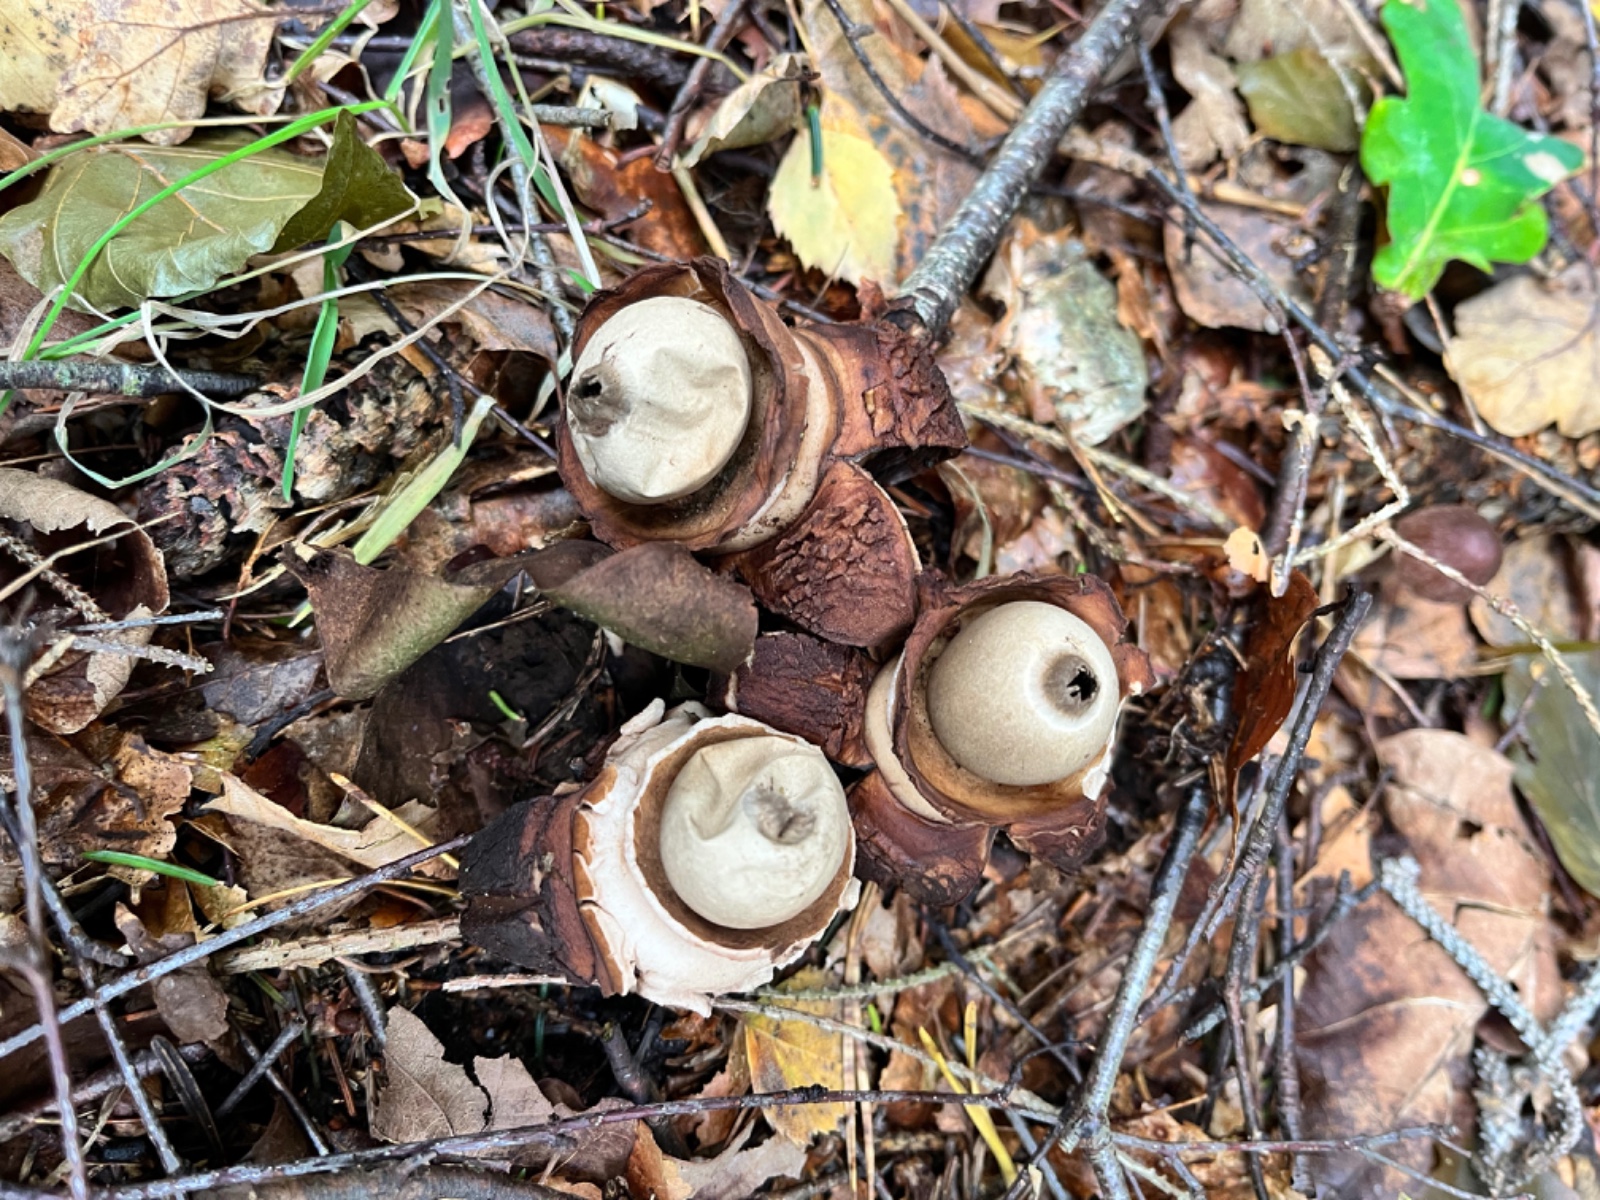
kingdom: Fungi
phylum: Basidiomycota
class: Agaricomycetes
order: Geastrales
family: Geastraceae
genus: Geastrum
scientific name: Geastrum michelianum
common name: kødet stjernebold
